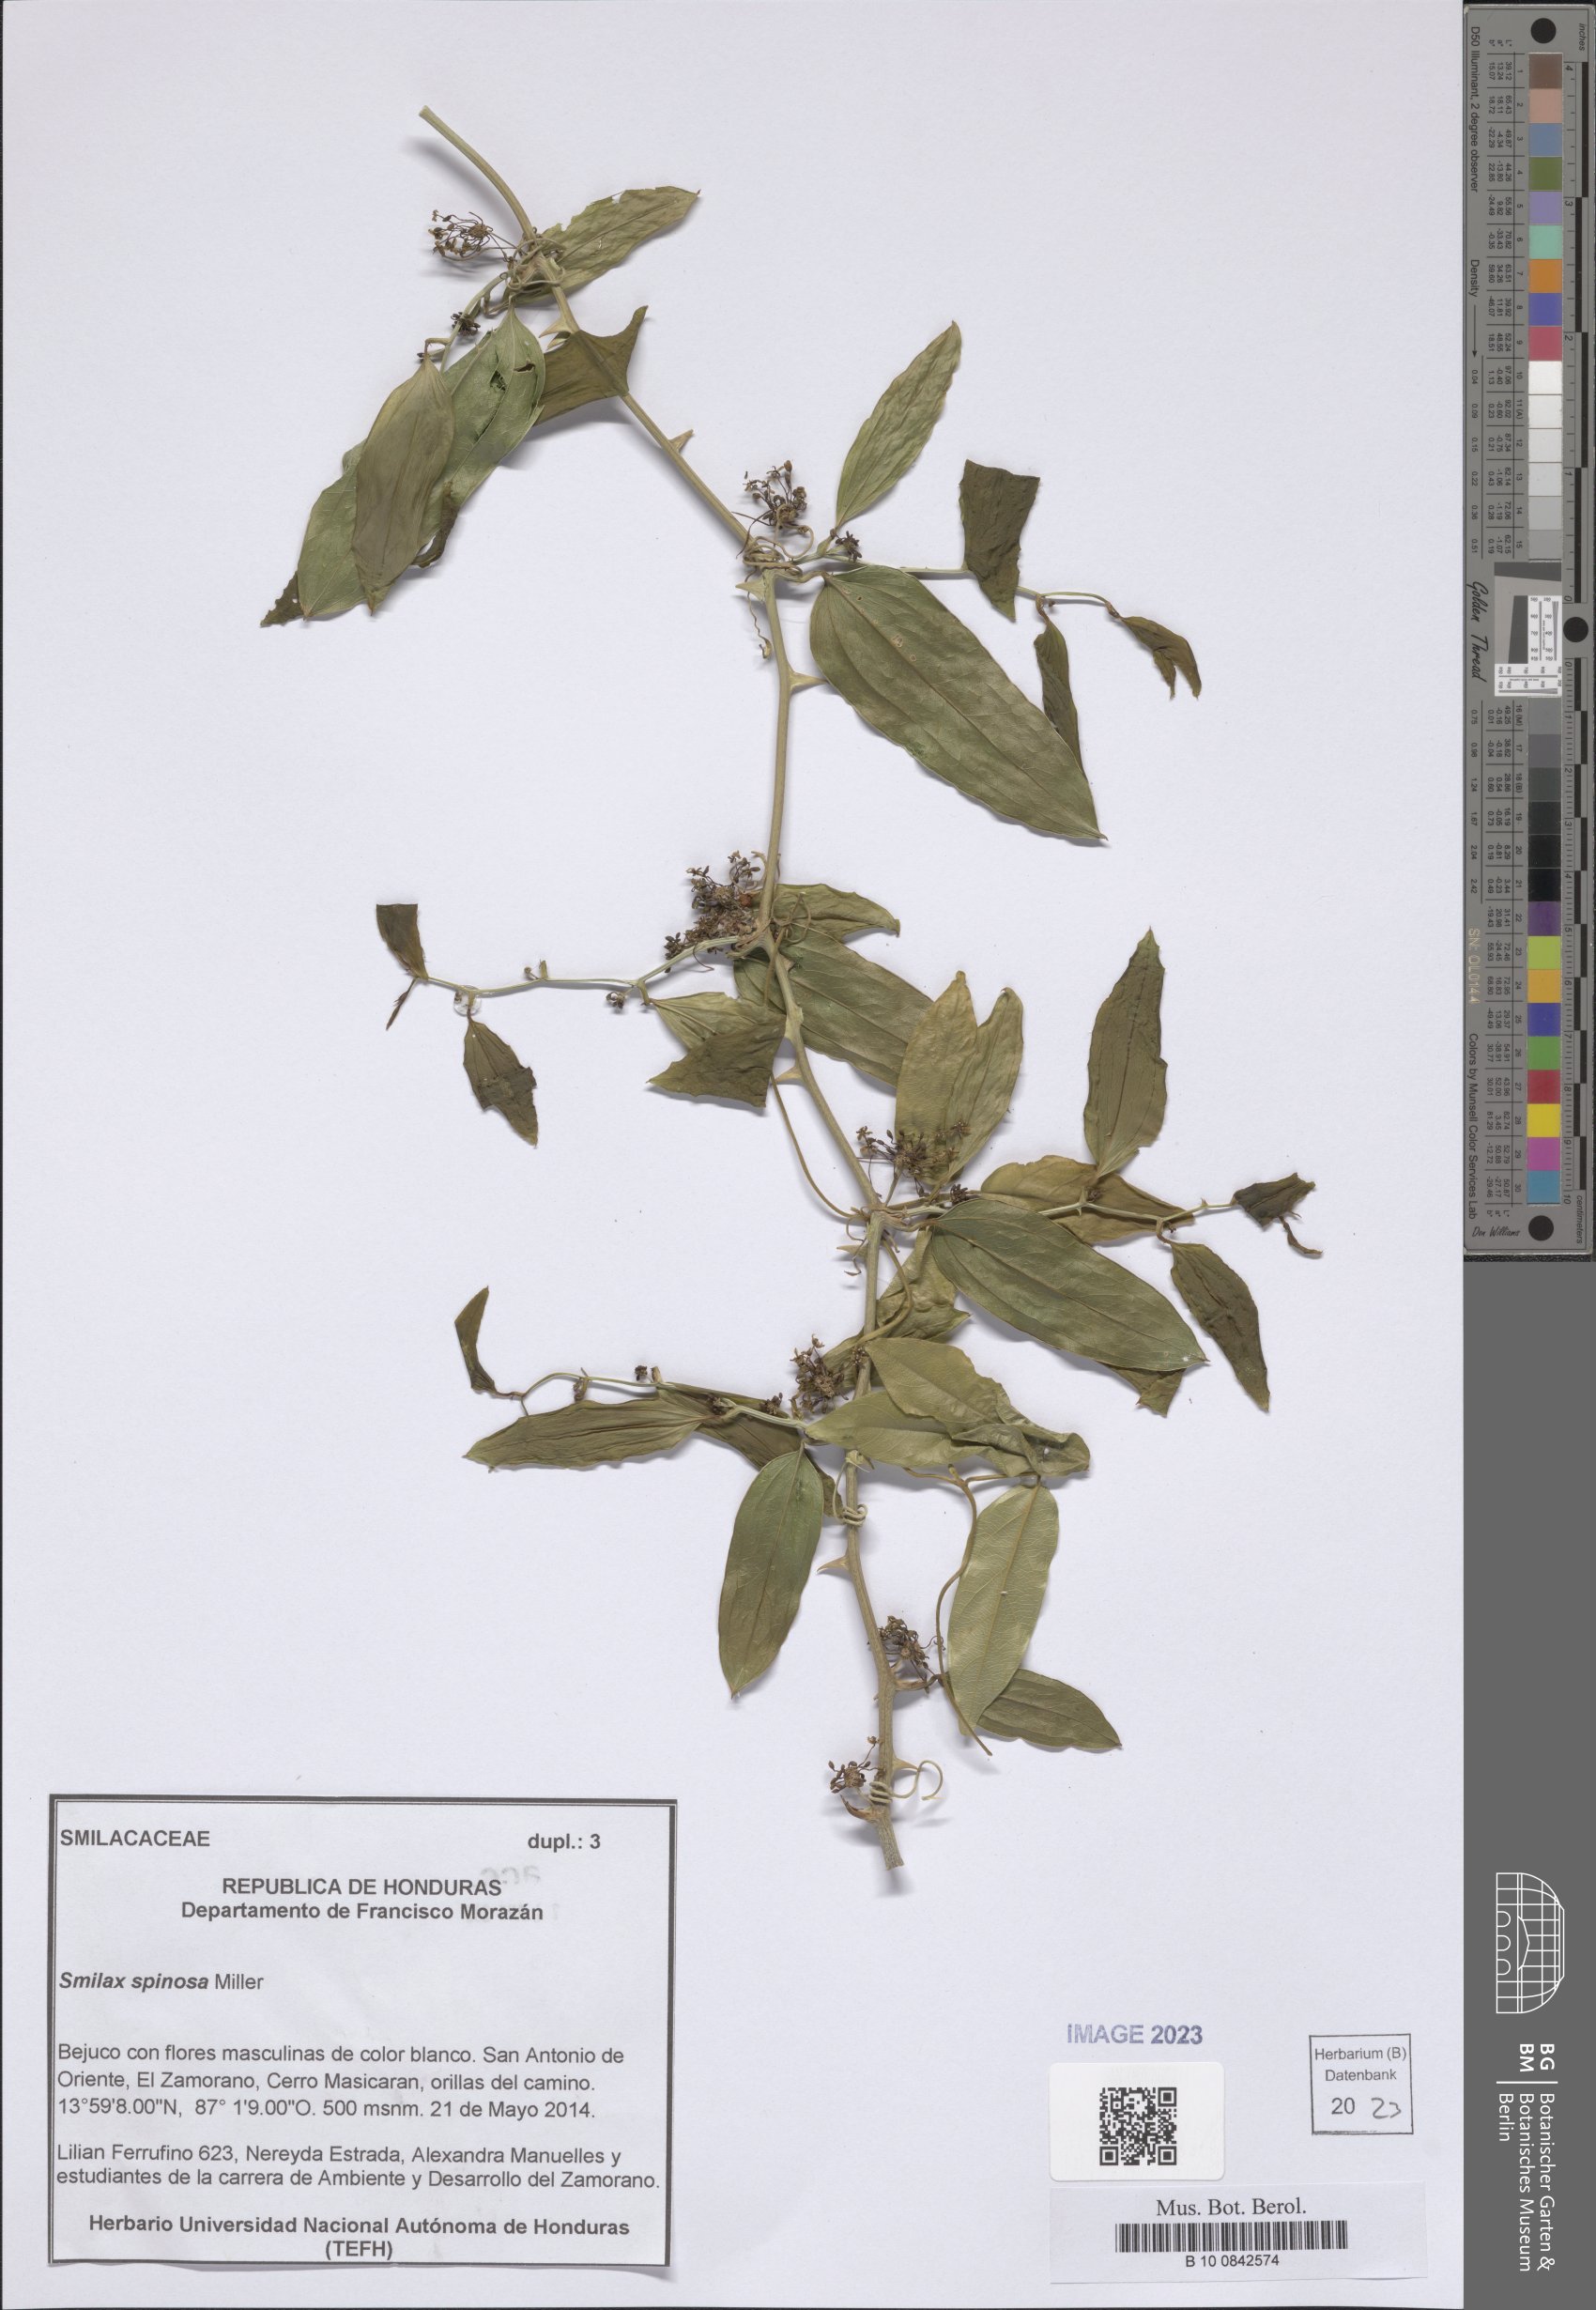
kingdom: Plantae
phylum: Tracheophyta
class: Liliopsida
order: Liliales
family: Smilacaceae
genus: Smilax
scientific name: Smilax spinosa
